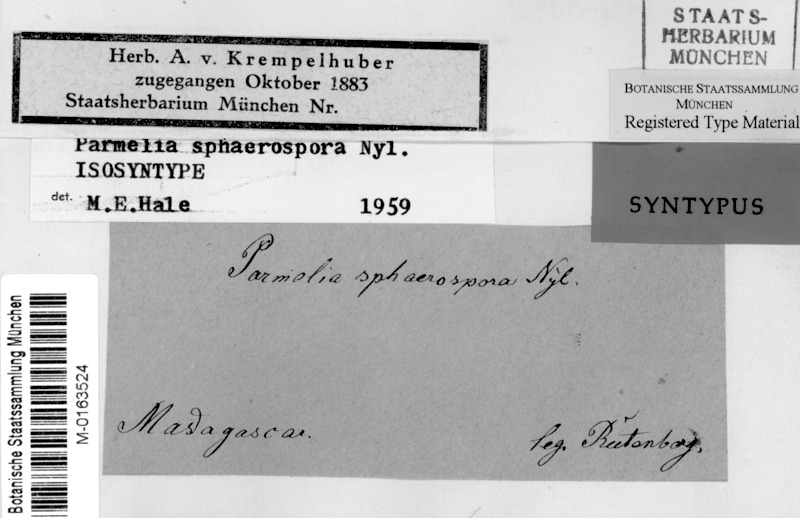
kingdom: Fungi
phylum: Ascomycota
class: Lecanoromycetes
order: Lecanorales
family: Parmeliaceae
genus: Relicina
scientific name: Relicina limbata
